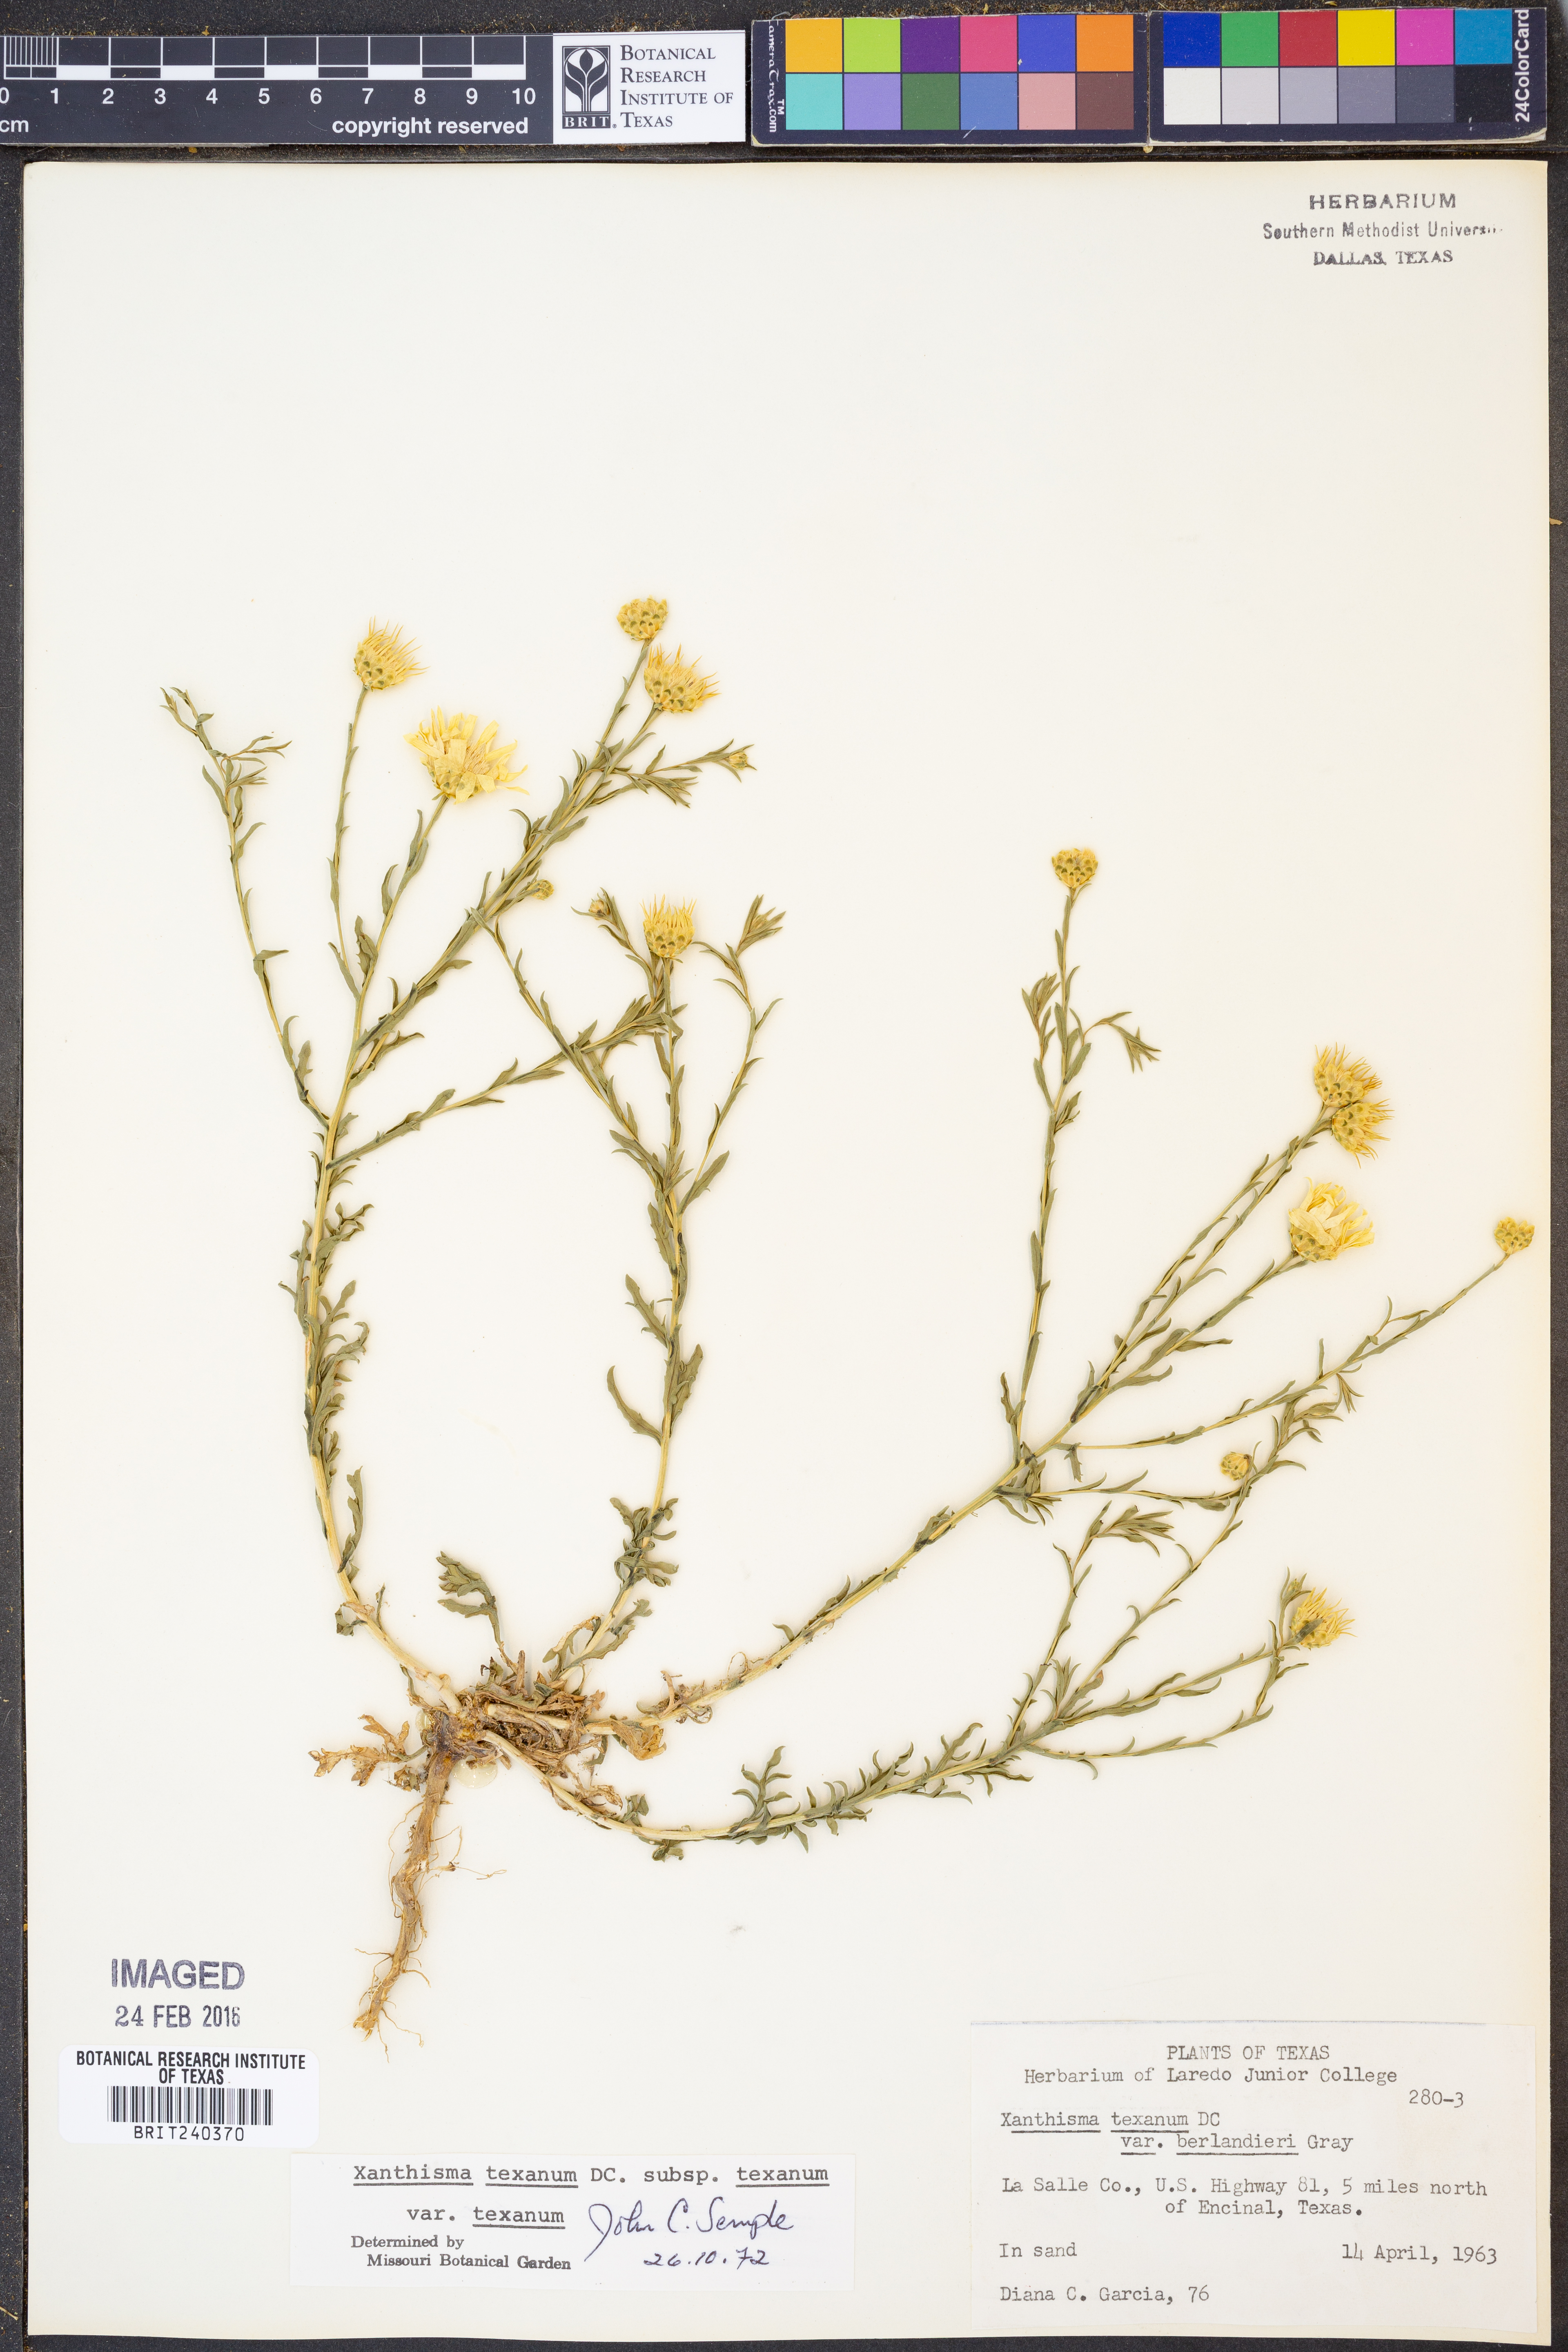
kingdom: Plantae
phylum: Tracheophyta
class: Magnoliopsida
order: Asterales
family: Asteraceae
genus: Xanthisma
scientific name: Xanthisma texanum
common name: Texas sleepy daisy
